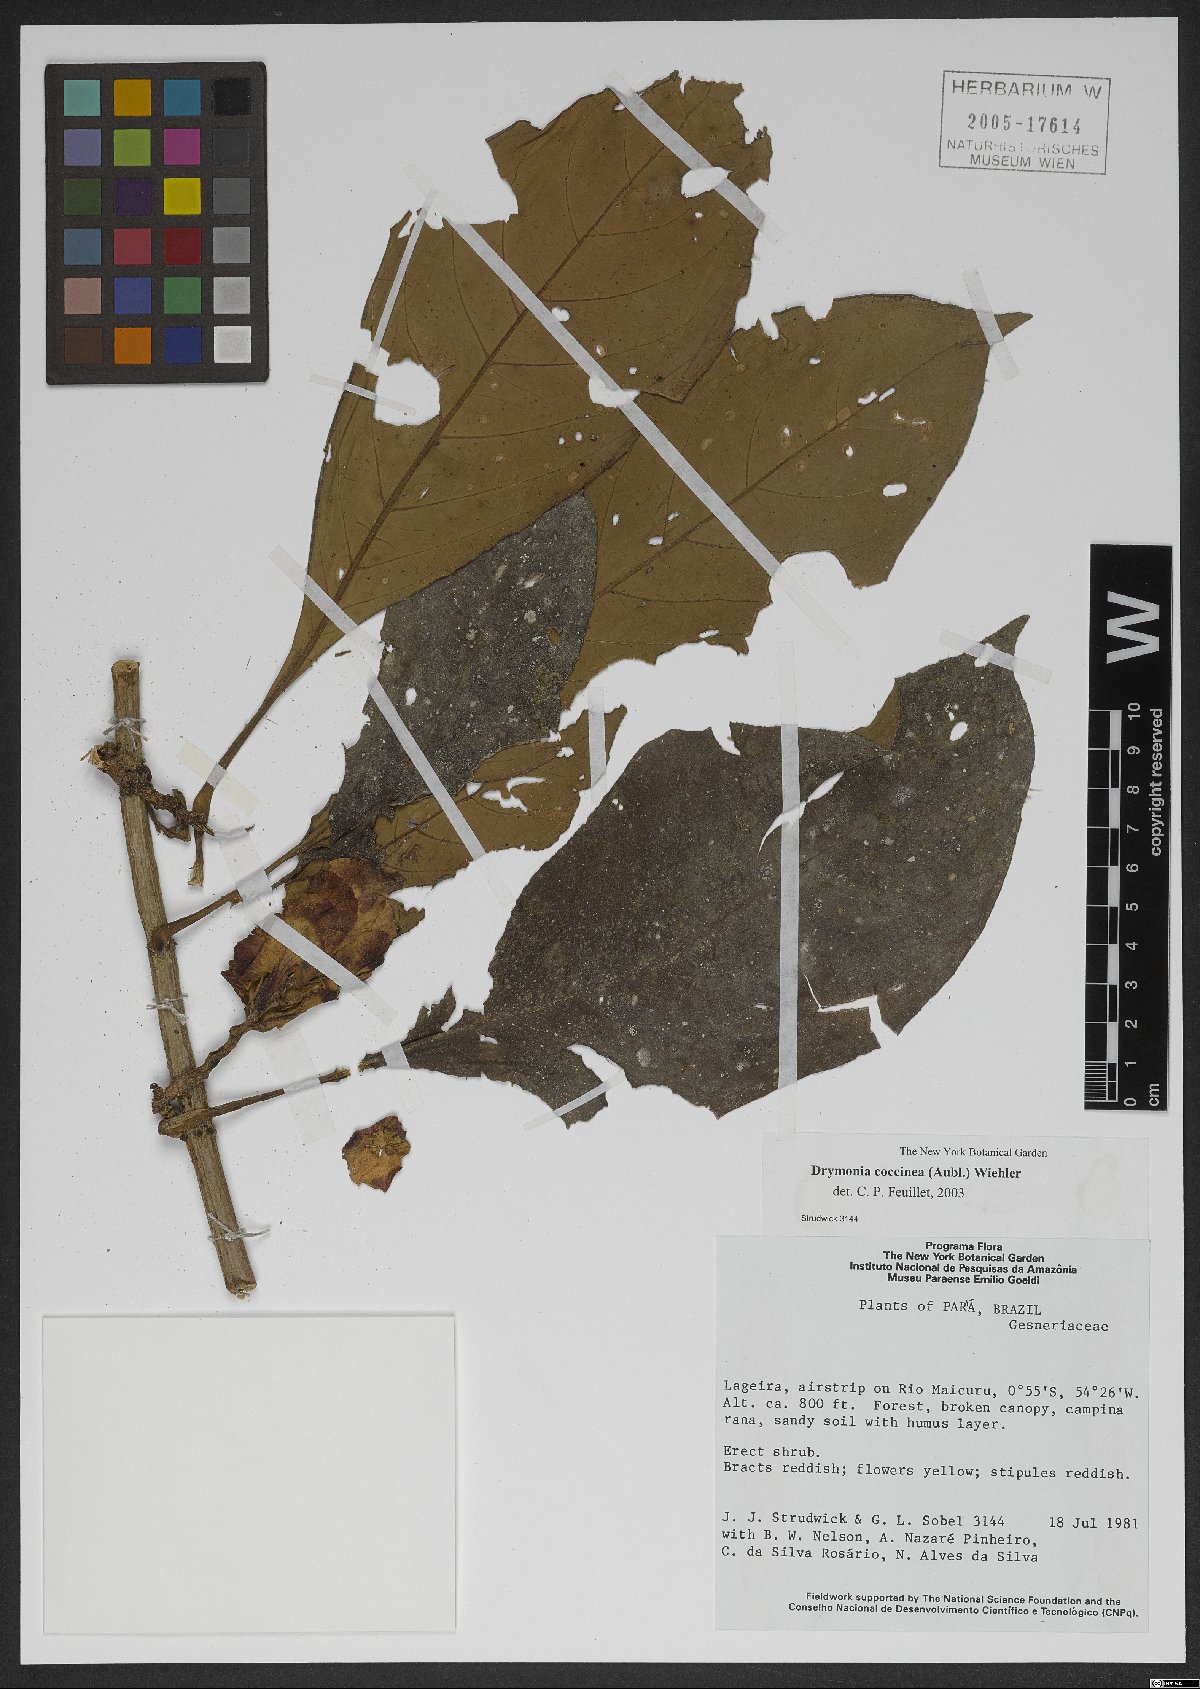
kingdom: Plantae
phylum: Tracheophyta
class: Magnoliopsida
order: Lamiales
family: Gesneriaceae
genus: Drymonia
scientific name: Drymonia coccinea
